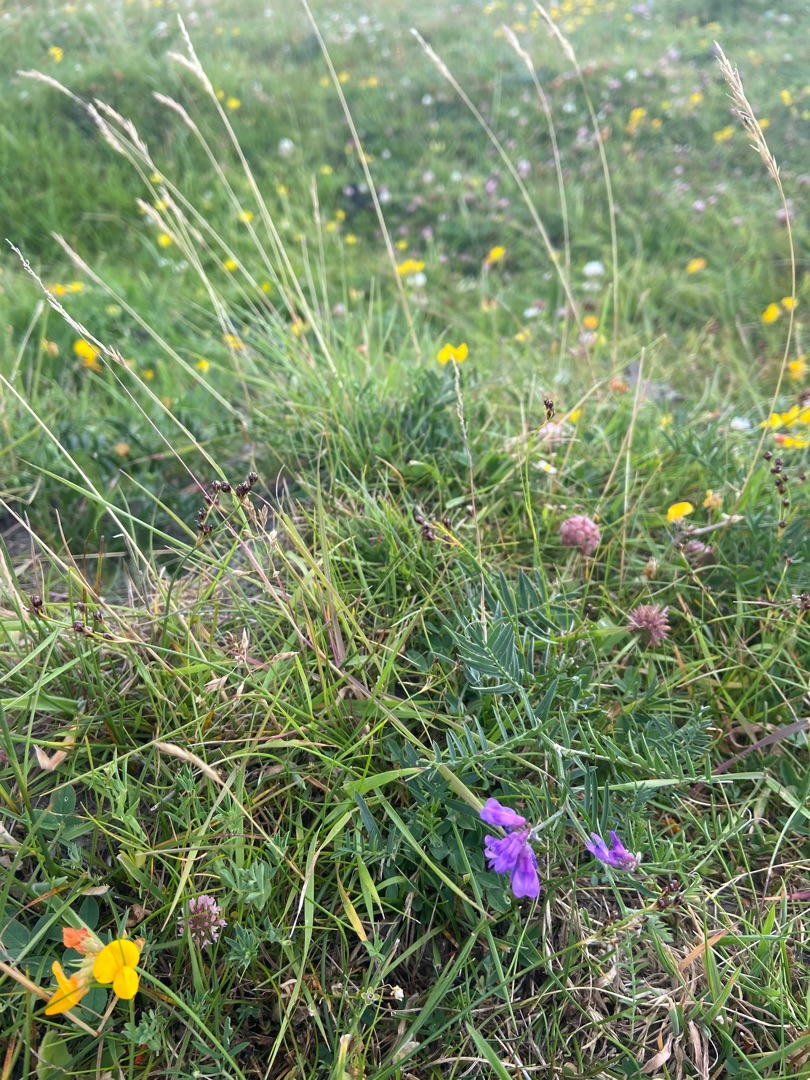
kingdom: Plantae
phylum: Tracheophyta
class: Magnoliopsida
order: Fabales
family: Fabaceae
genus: Vicia
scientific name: Vicia cracca
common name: Muse-vikke
